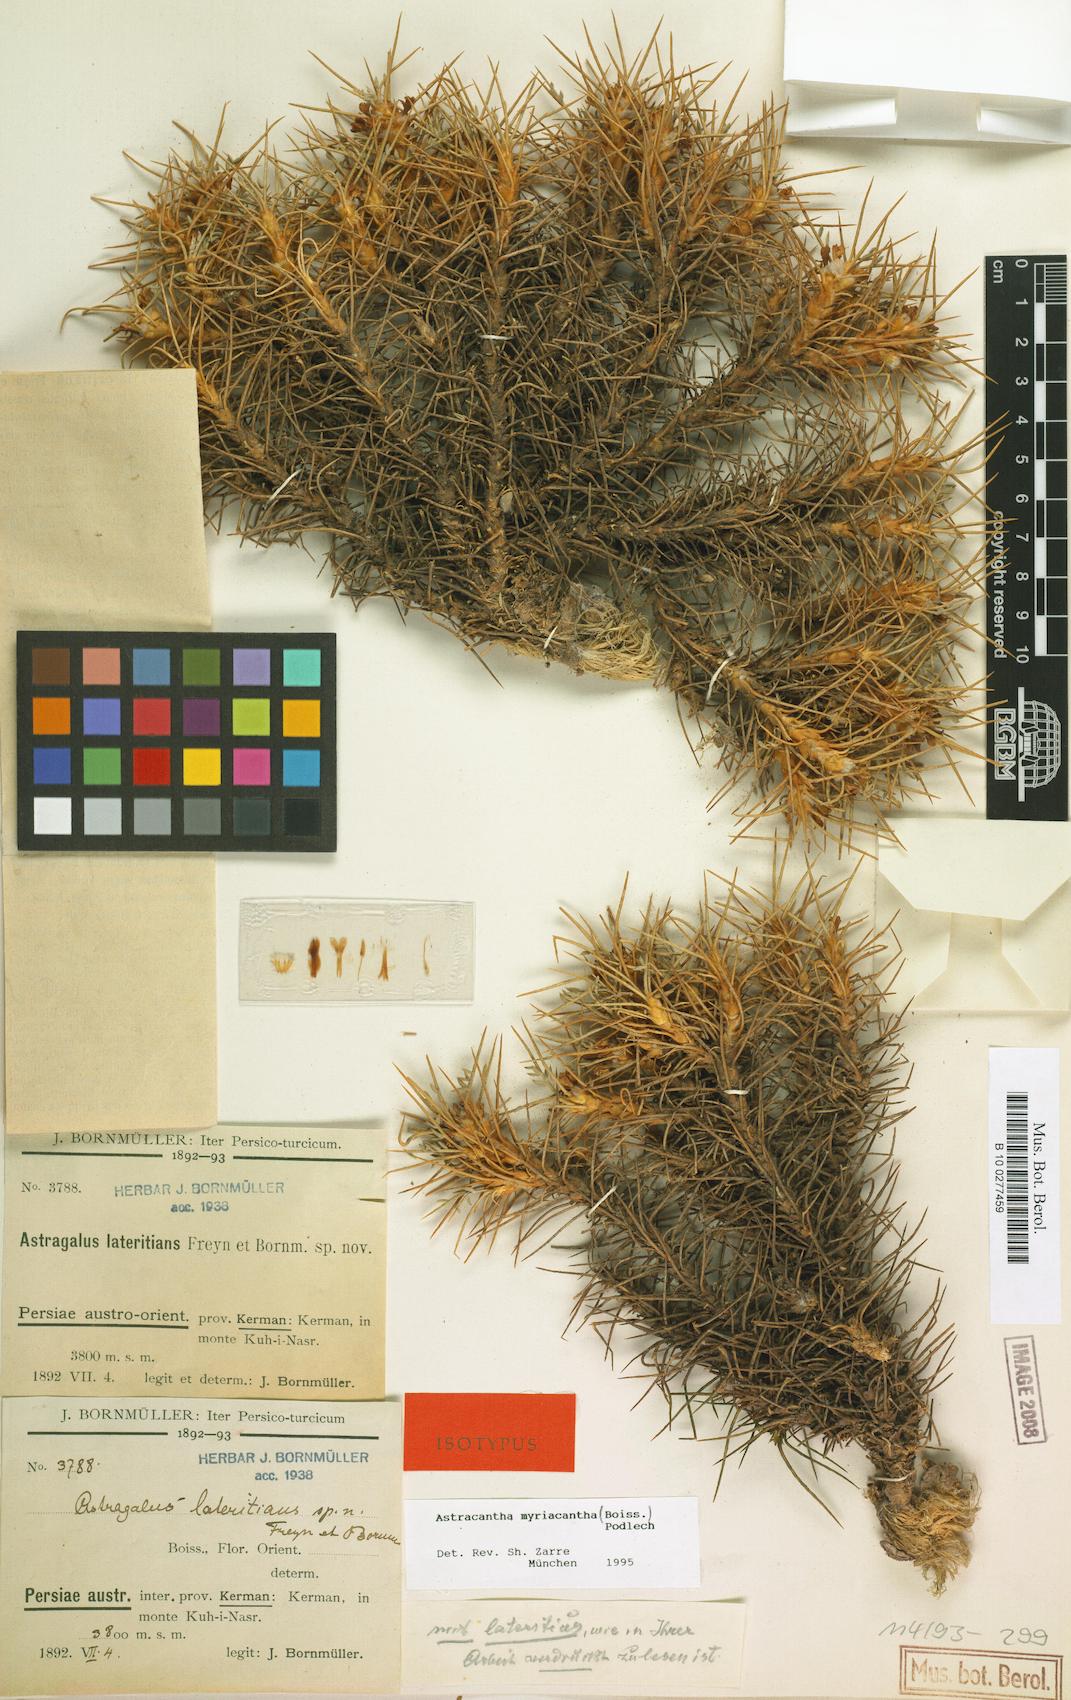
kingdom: Plantae
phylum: Tracheophyta
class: Magnoliopsida
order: Fabales
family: Fabaceae
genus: Astragalus
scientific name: Astragalus myriacanthus
